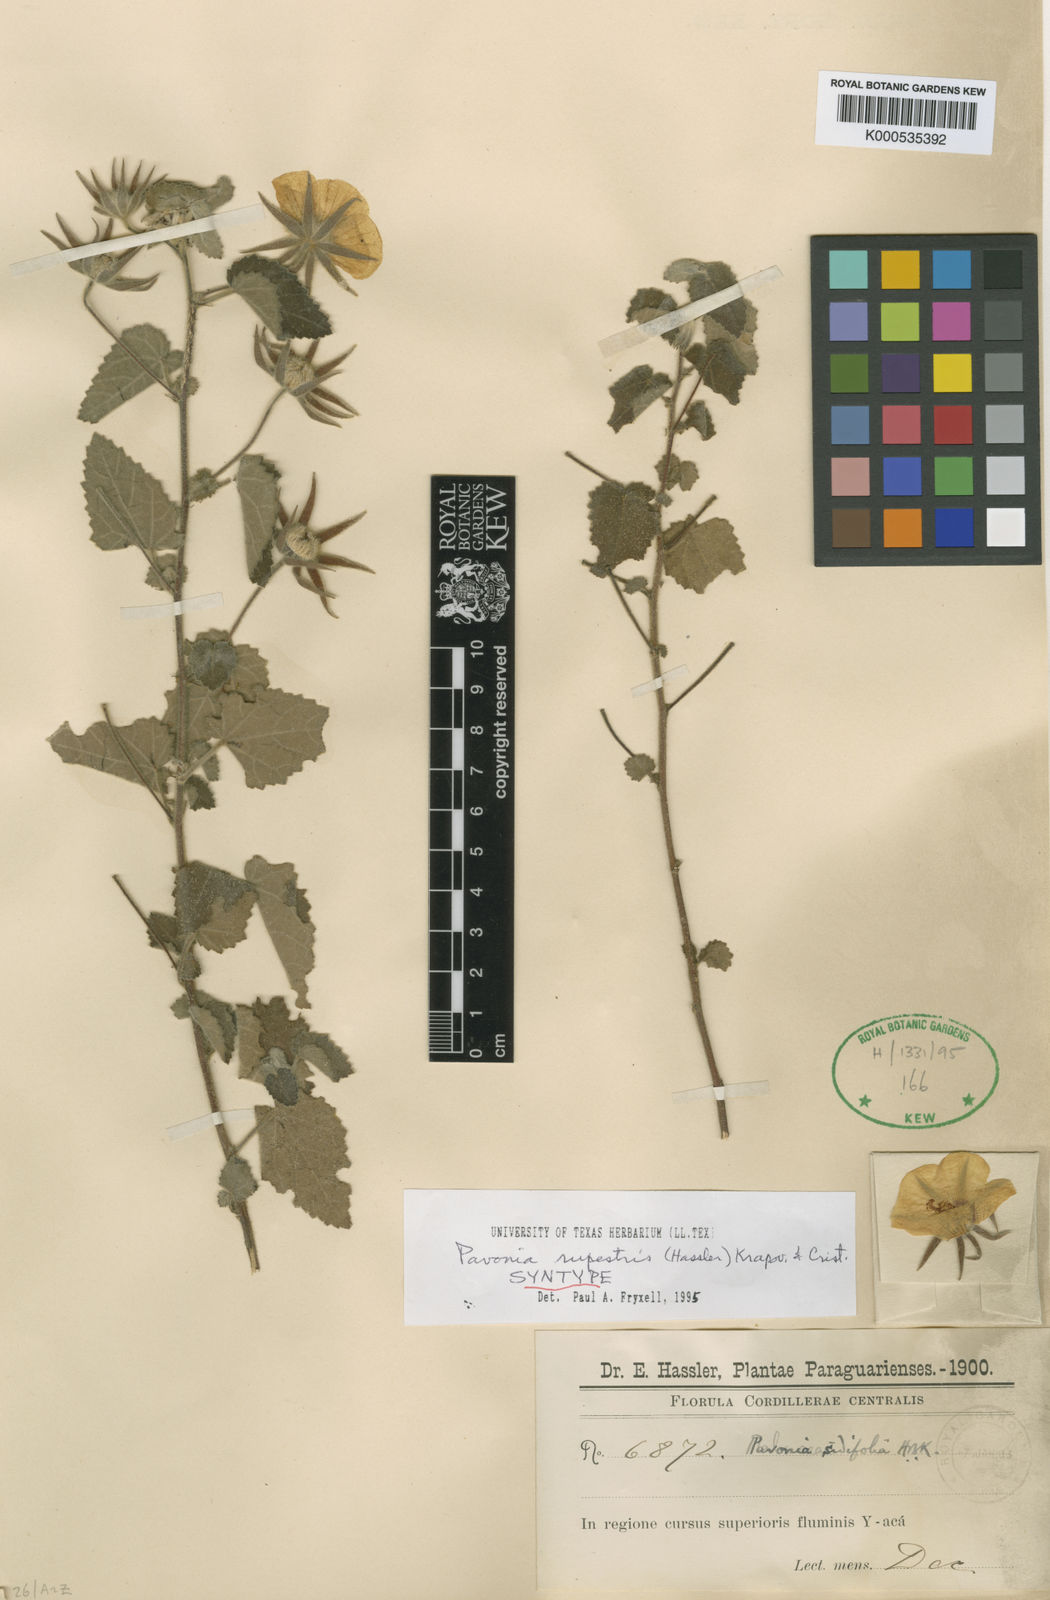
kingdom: Plantae
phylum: Tracheophyta
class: Magnoliopsida
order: Malvales
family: Malvaceae
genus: Pavonia
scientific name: Pavonia
